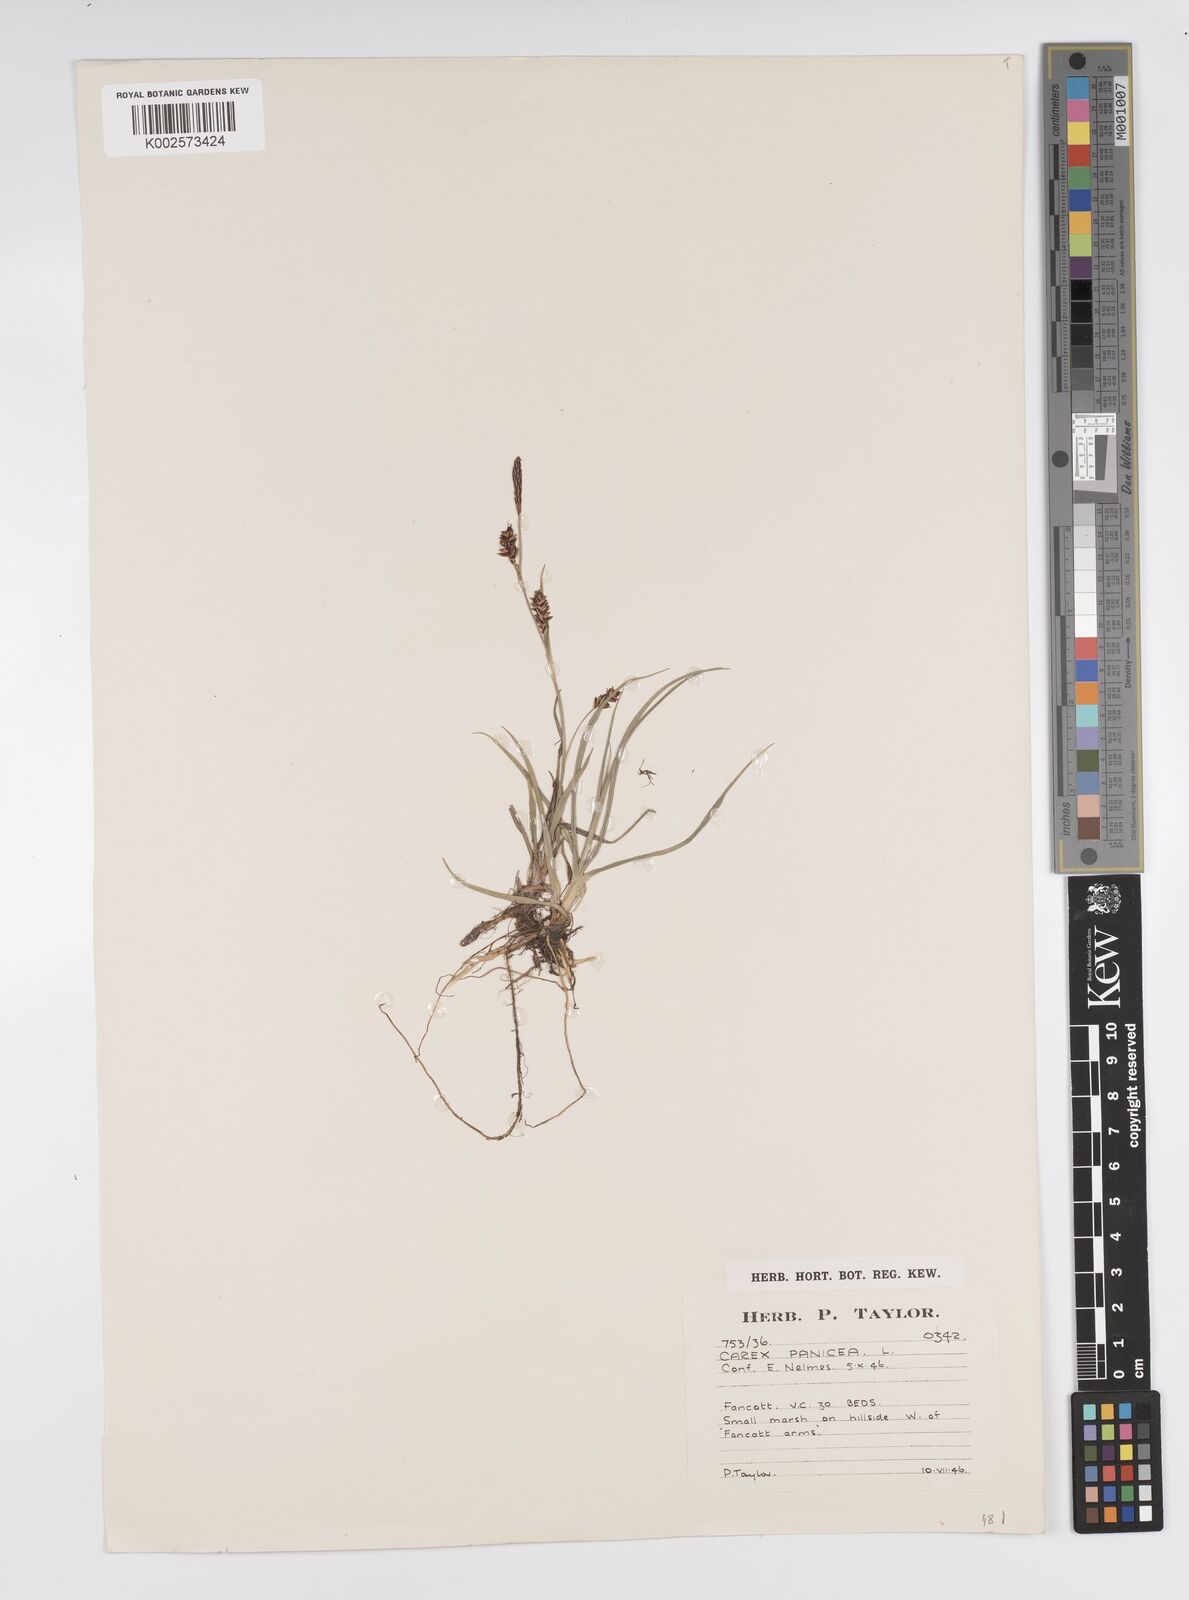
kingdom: Plantae
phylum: Tracheophyta
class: Liliopsida
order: Poales
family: Cyperaceae
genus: Carex
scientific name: Carex panicea
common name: Carnation sedge
